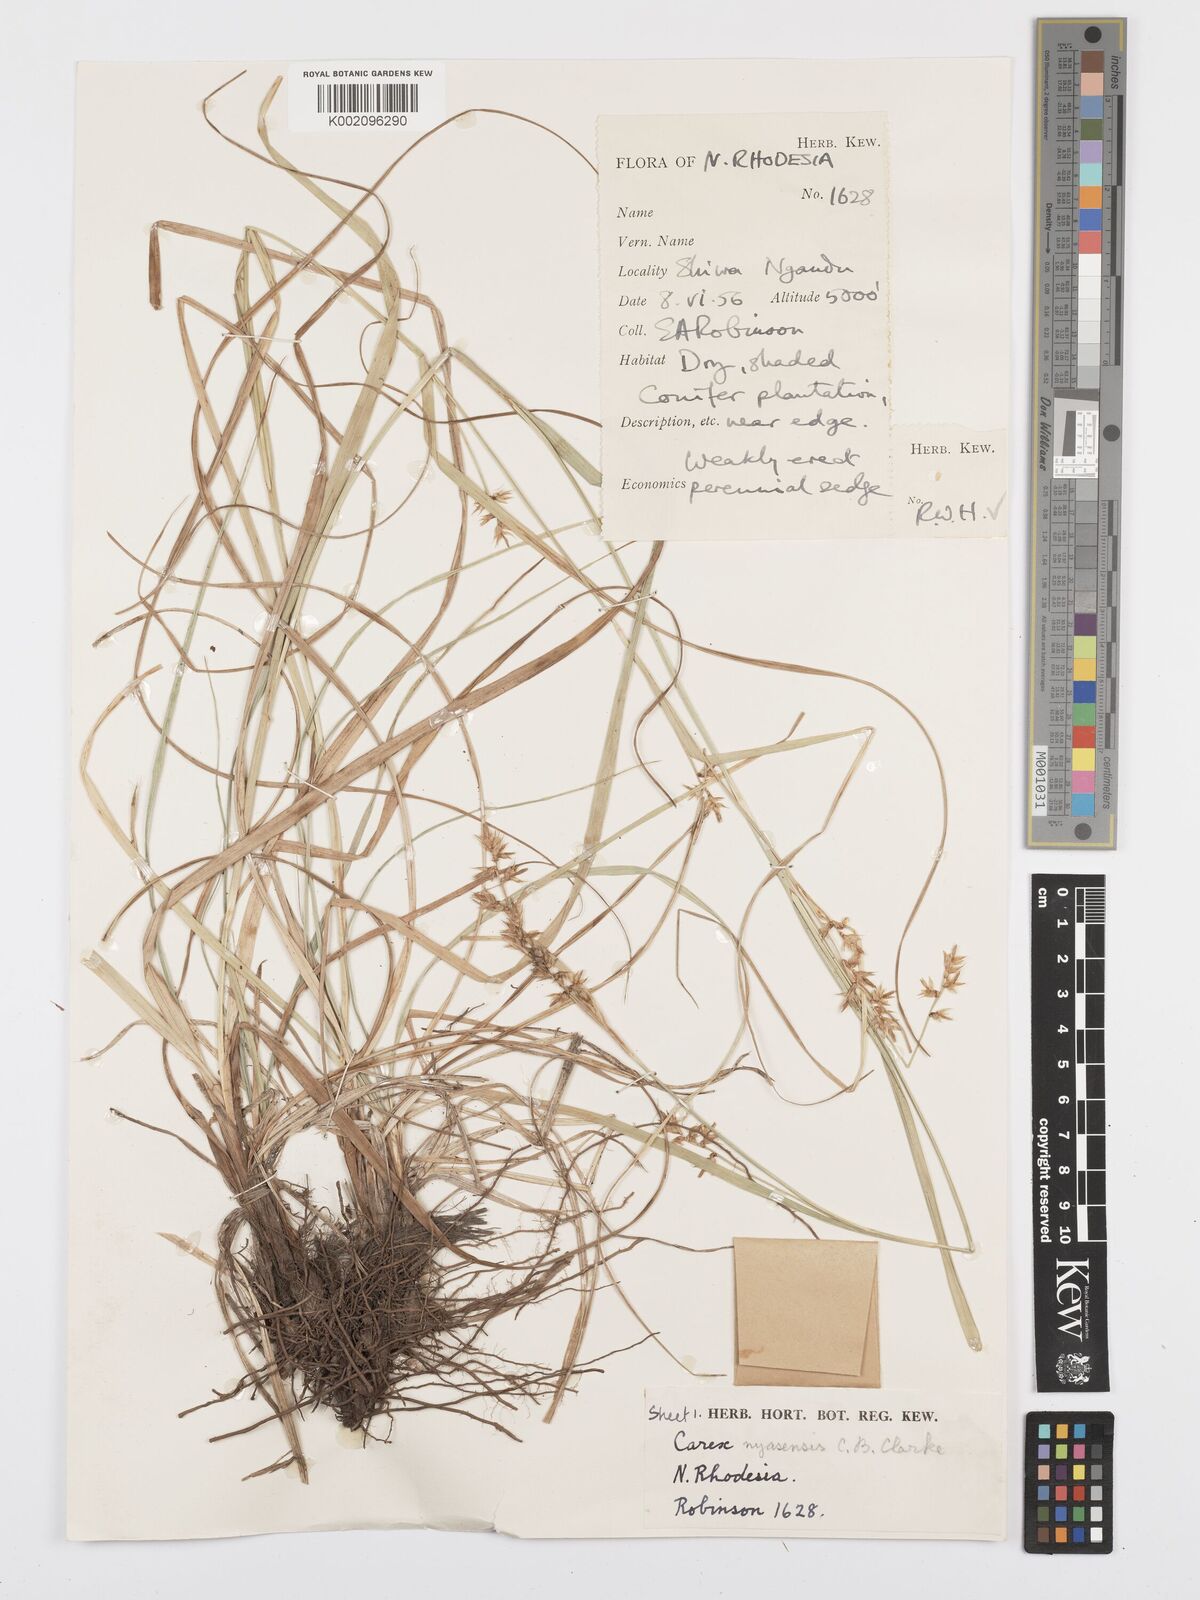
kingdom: Plantae
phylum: Tracheophyta
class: Liliopsida
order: Poales
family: Cyperaceae
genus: Carex
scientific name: Carex spicatopaniculata
